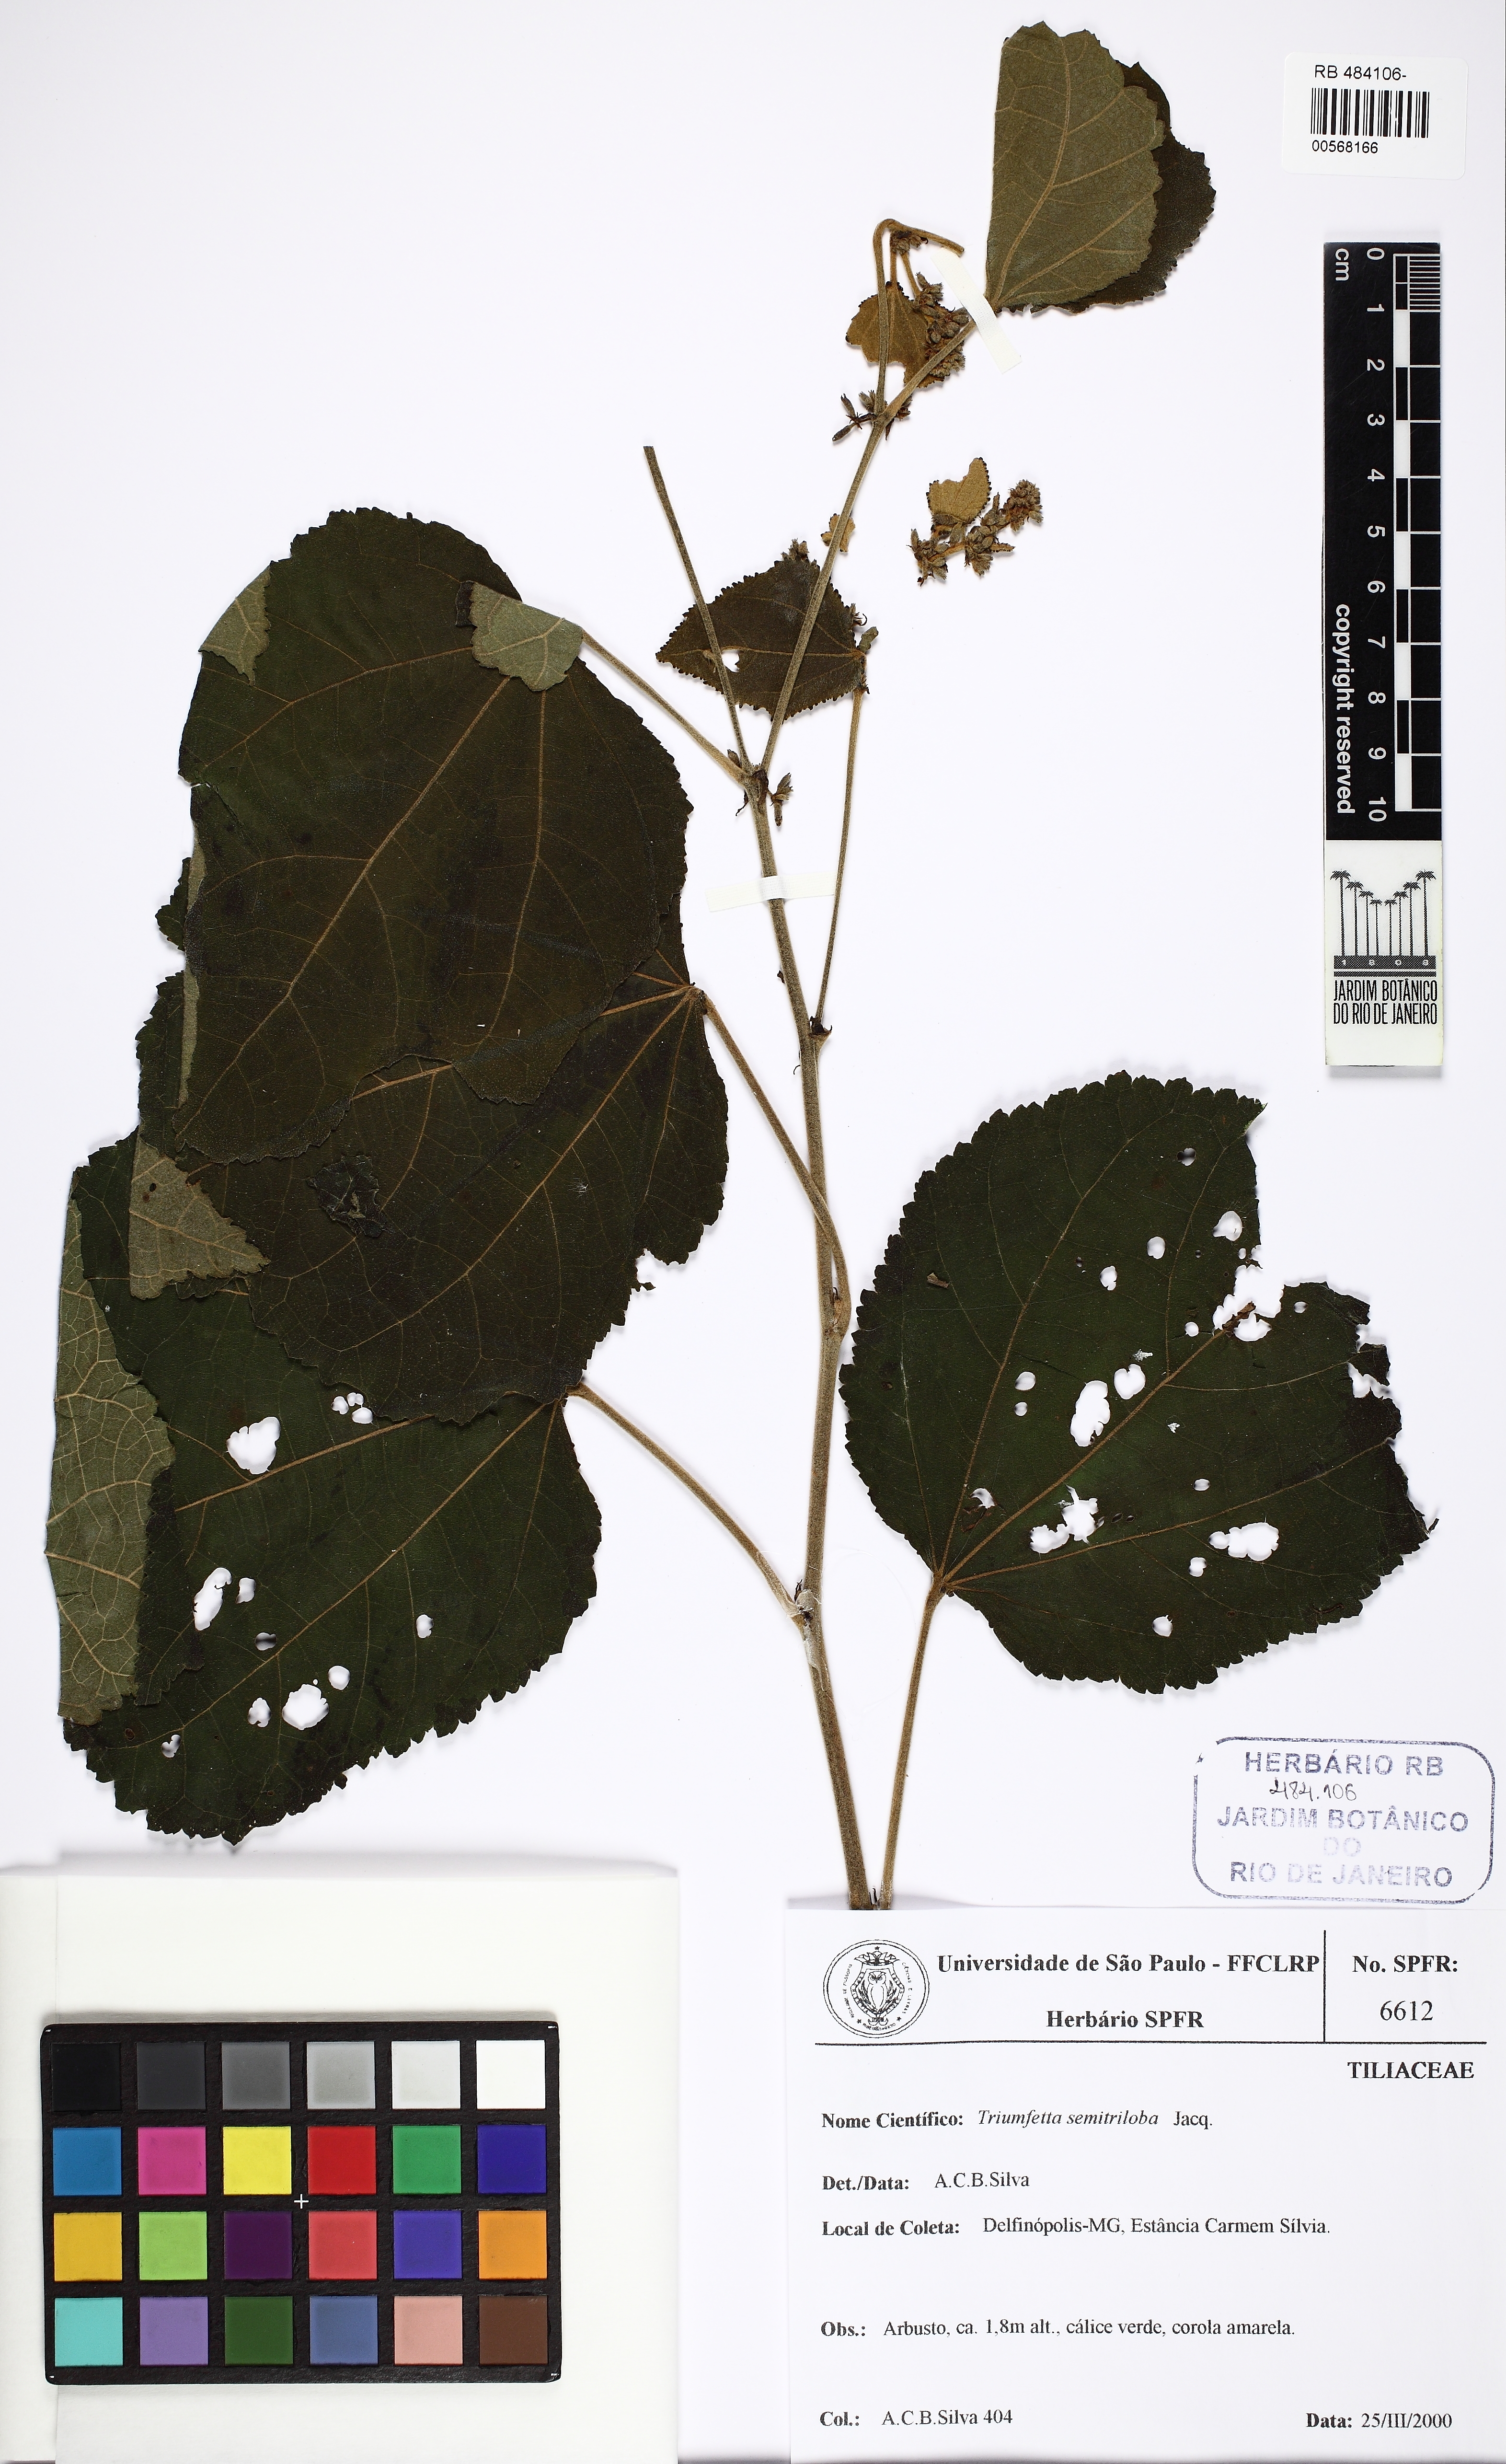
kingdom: Plantae
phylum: Tracheophyta
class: Magnoliopsida
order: Malvales
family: Malvaceae
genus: Triumfetta
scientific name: Triumfetta althaeoides
